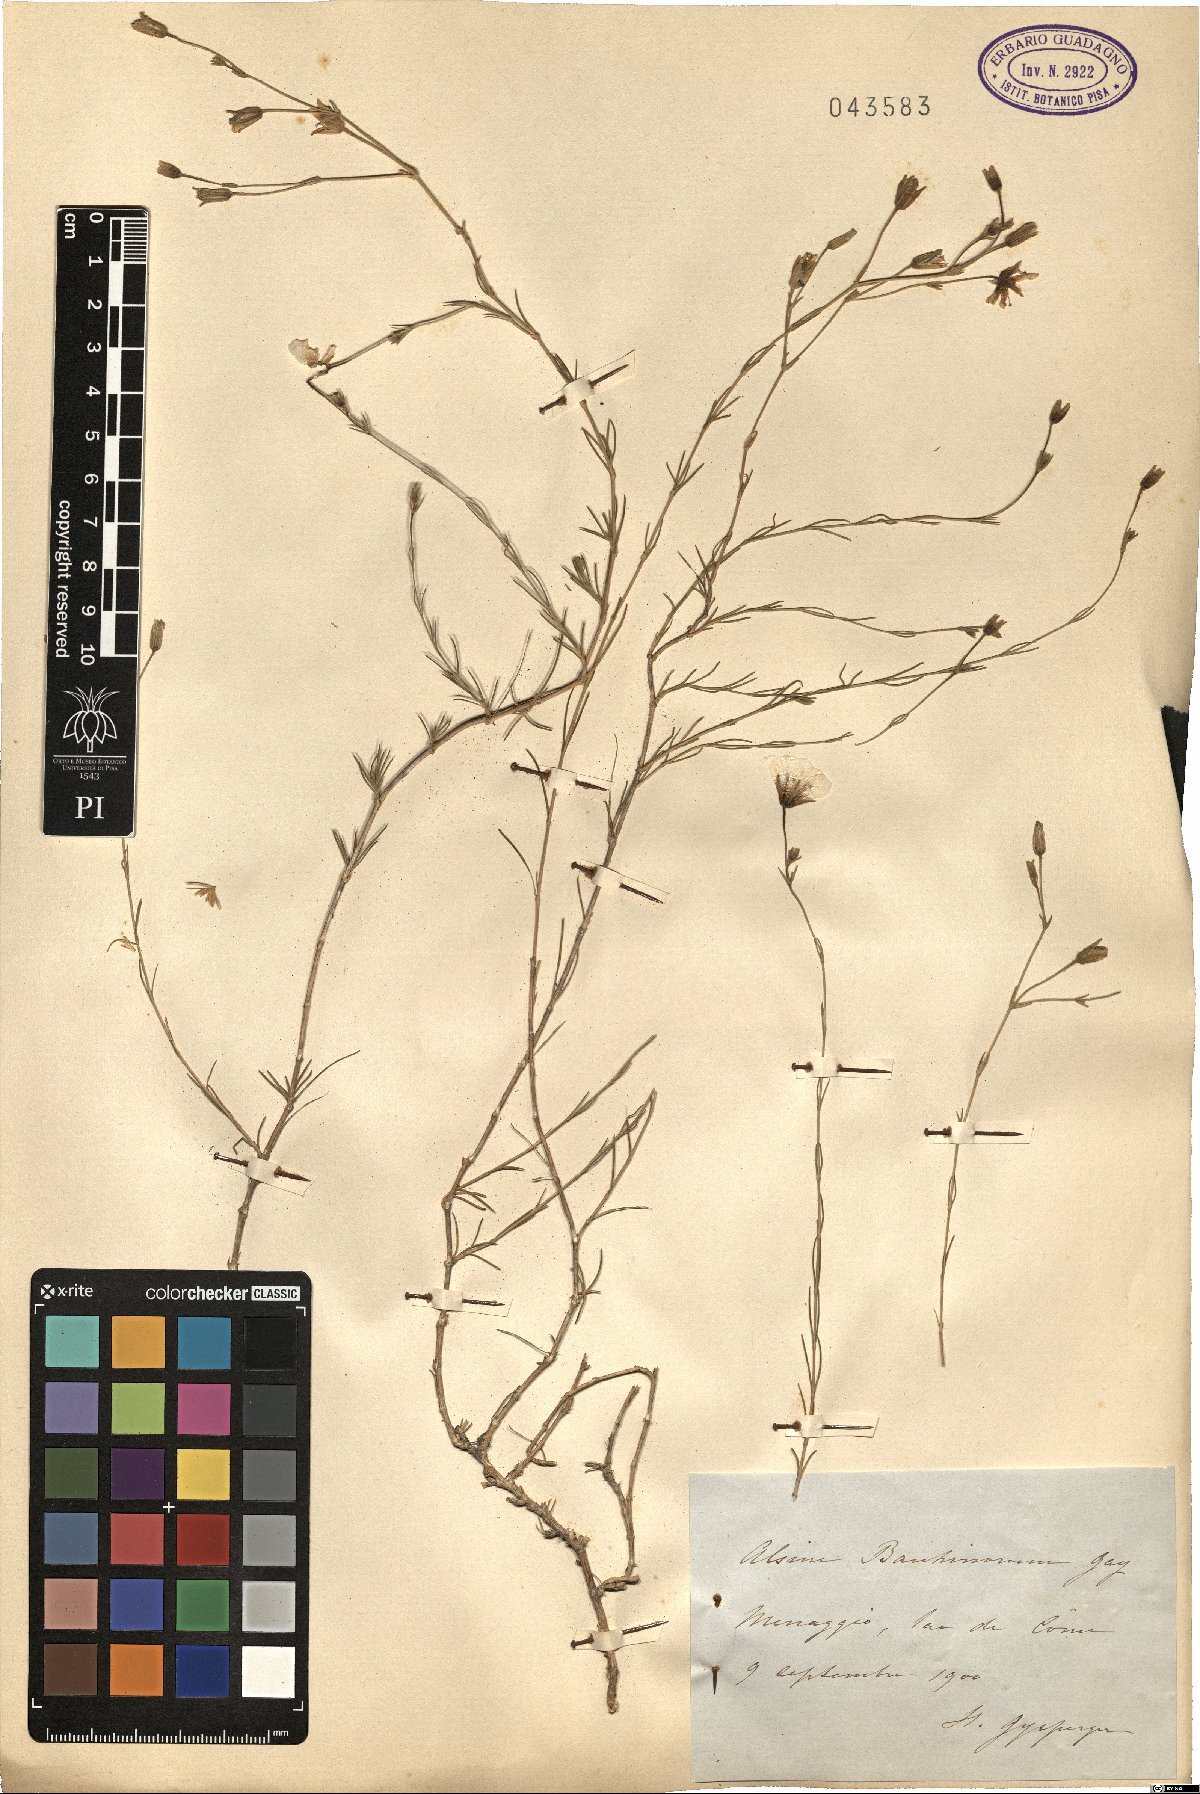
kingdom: Plantae
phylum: Tracheophyta
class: Magnoliopsida
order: Caryophyllales
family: Caryophyllaceae
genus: Cherleria
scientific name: Cherleria laricifolia
